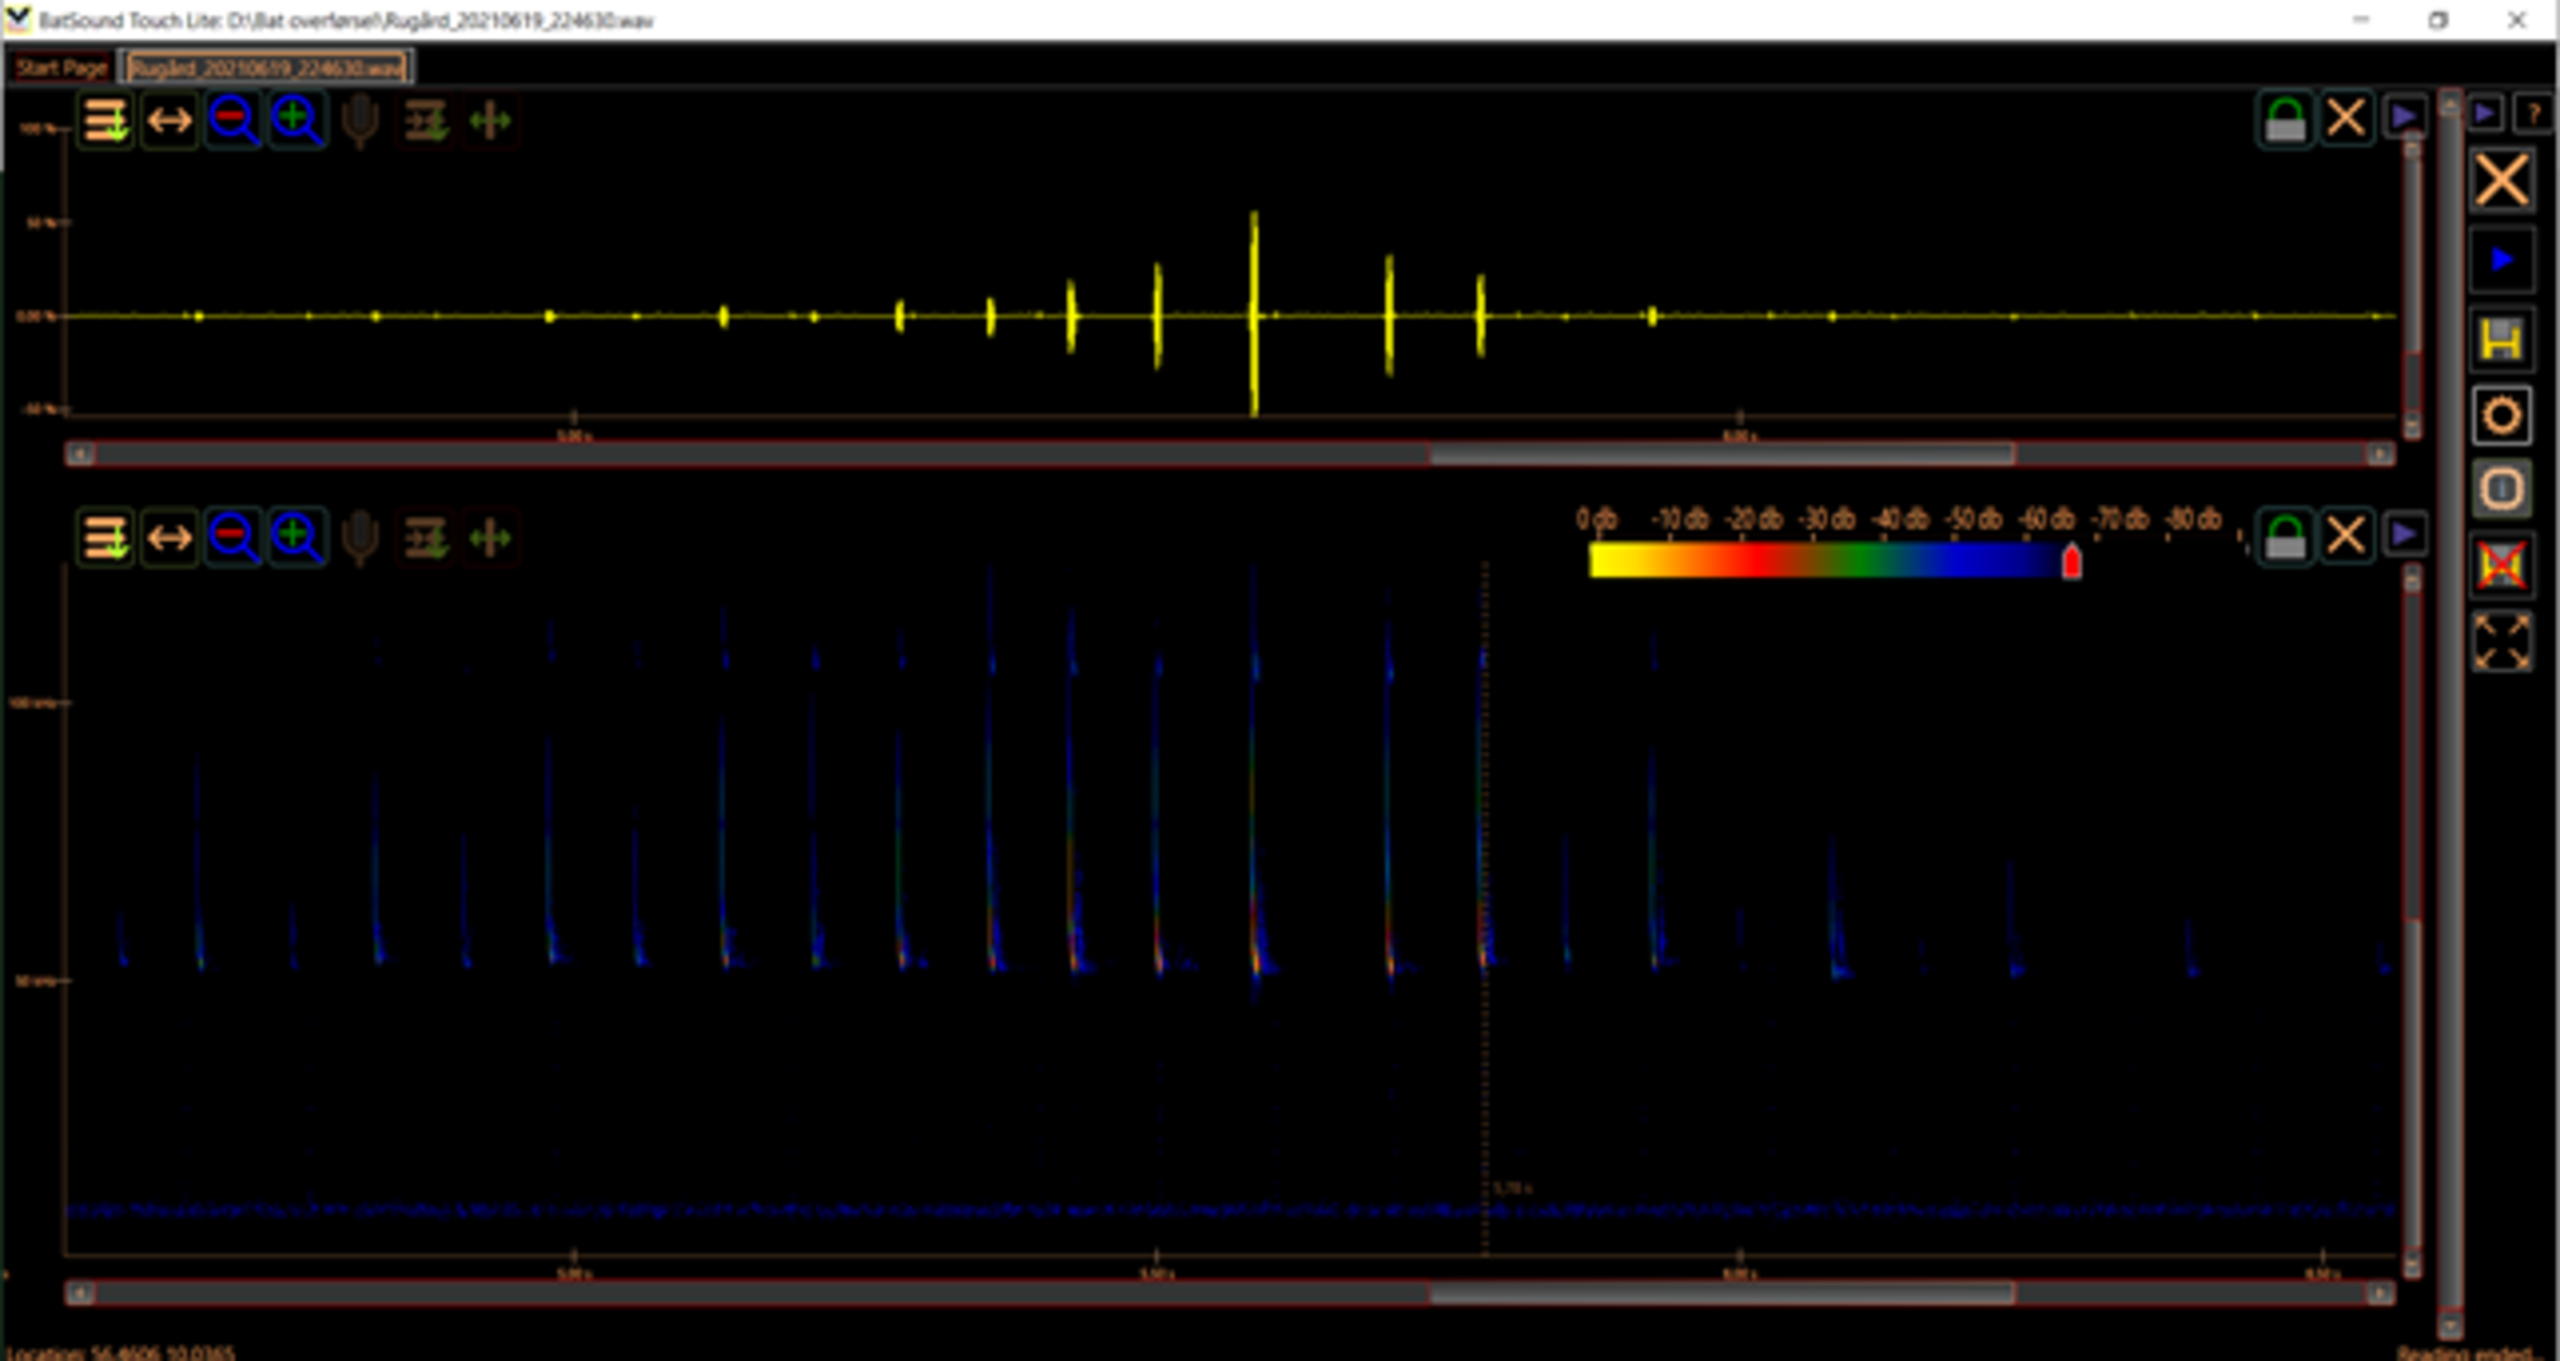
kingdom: Animalia
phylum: Chordata
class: Mammalia
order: Chiroptera
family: Vespertilionidae
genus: Pipistrellus
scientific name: Pipistrellus pygmaeus
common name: Dværgflagermus
